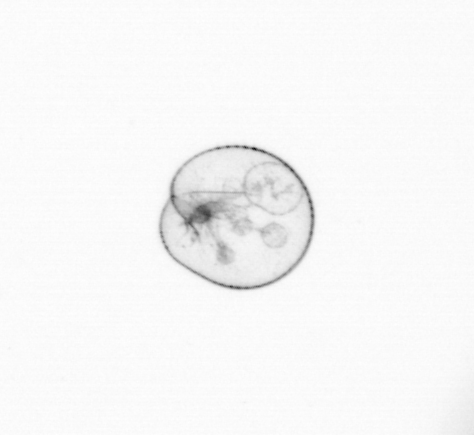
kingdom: Chromista
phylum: Myzozoa
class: Dinophyceae
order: Noctilucales
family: Noctilucaceae
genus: Noctiluca
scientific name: Noctiluca scintillans
